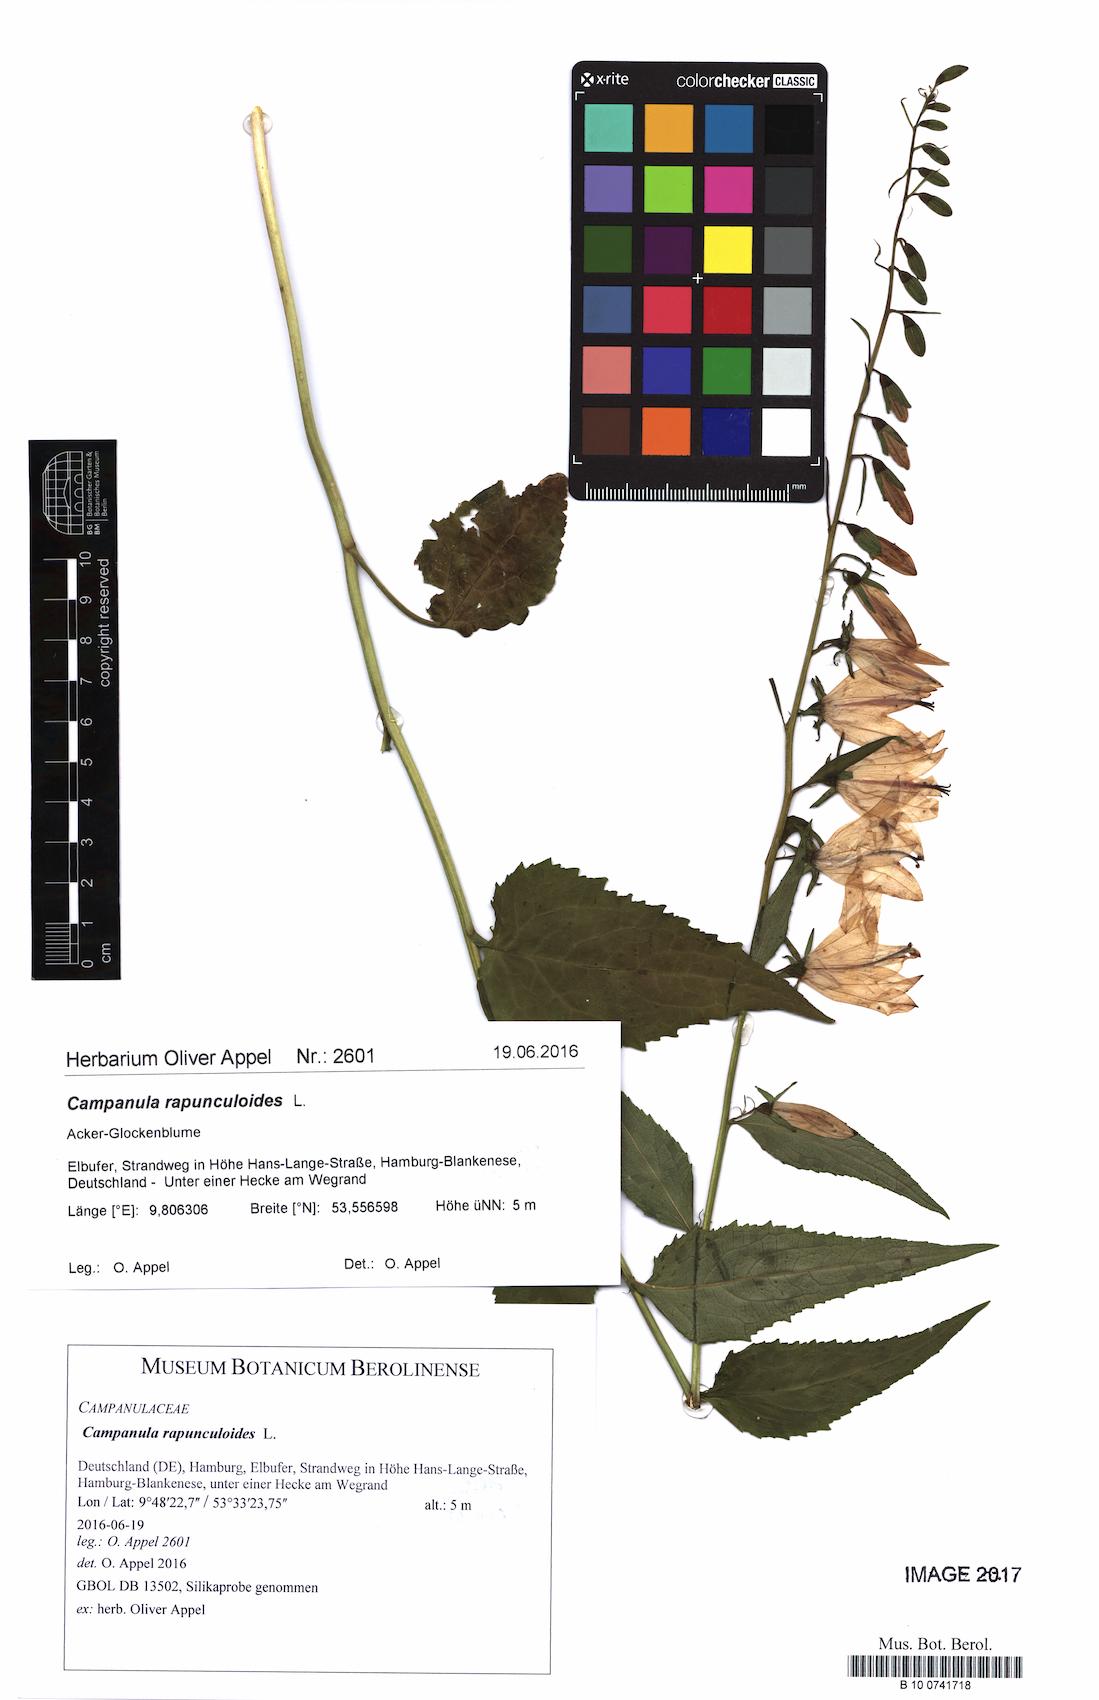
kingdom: Plantae
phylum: Tracheophyta
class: Magnoliopsida
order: Asterales
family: Campanulaceae
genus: Campanula
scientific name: Campanula rapunculoides
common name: Creeping bellflower
